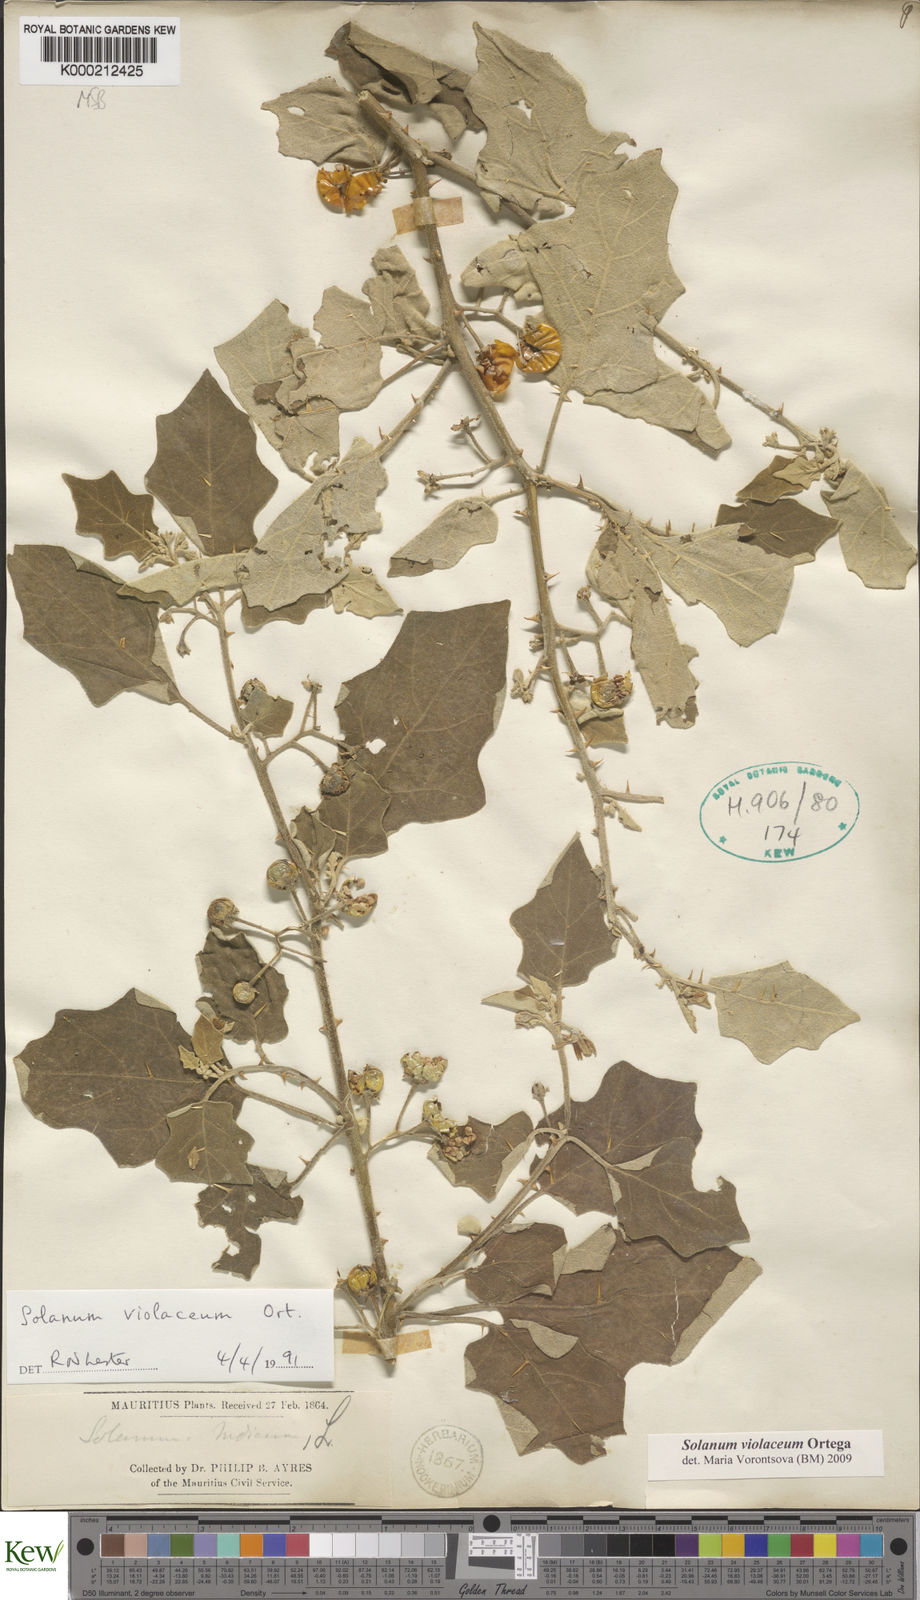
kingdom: Plantae
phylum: Tracheophyta
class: Magnoliopsida
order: Solanales
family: Solanaceae
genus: Solanum
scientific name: Solanum violaceum
